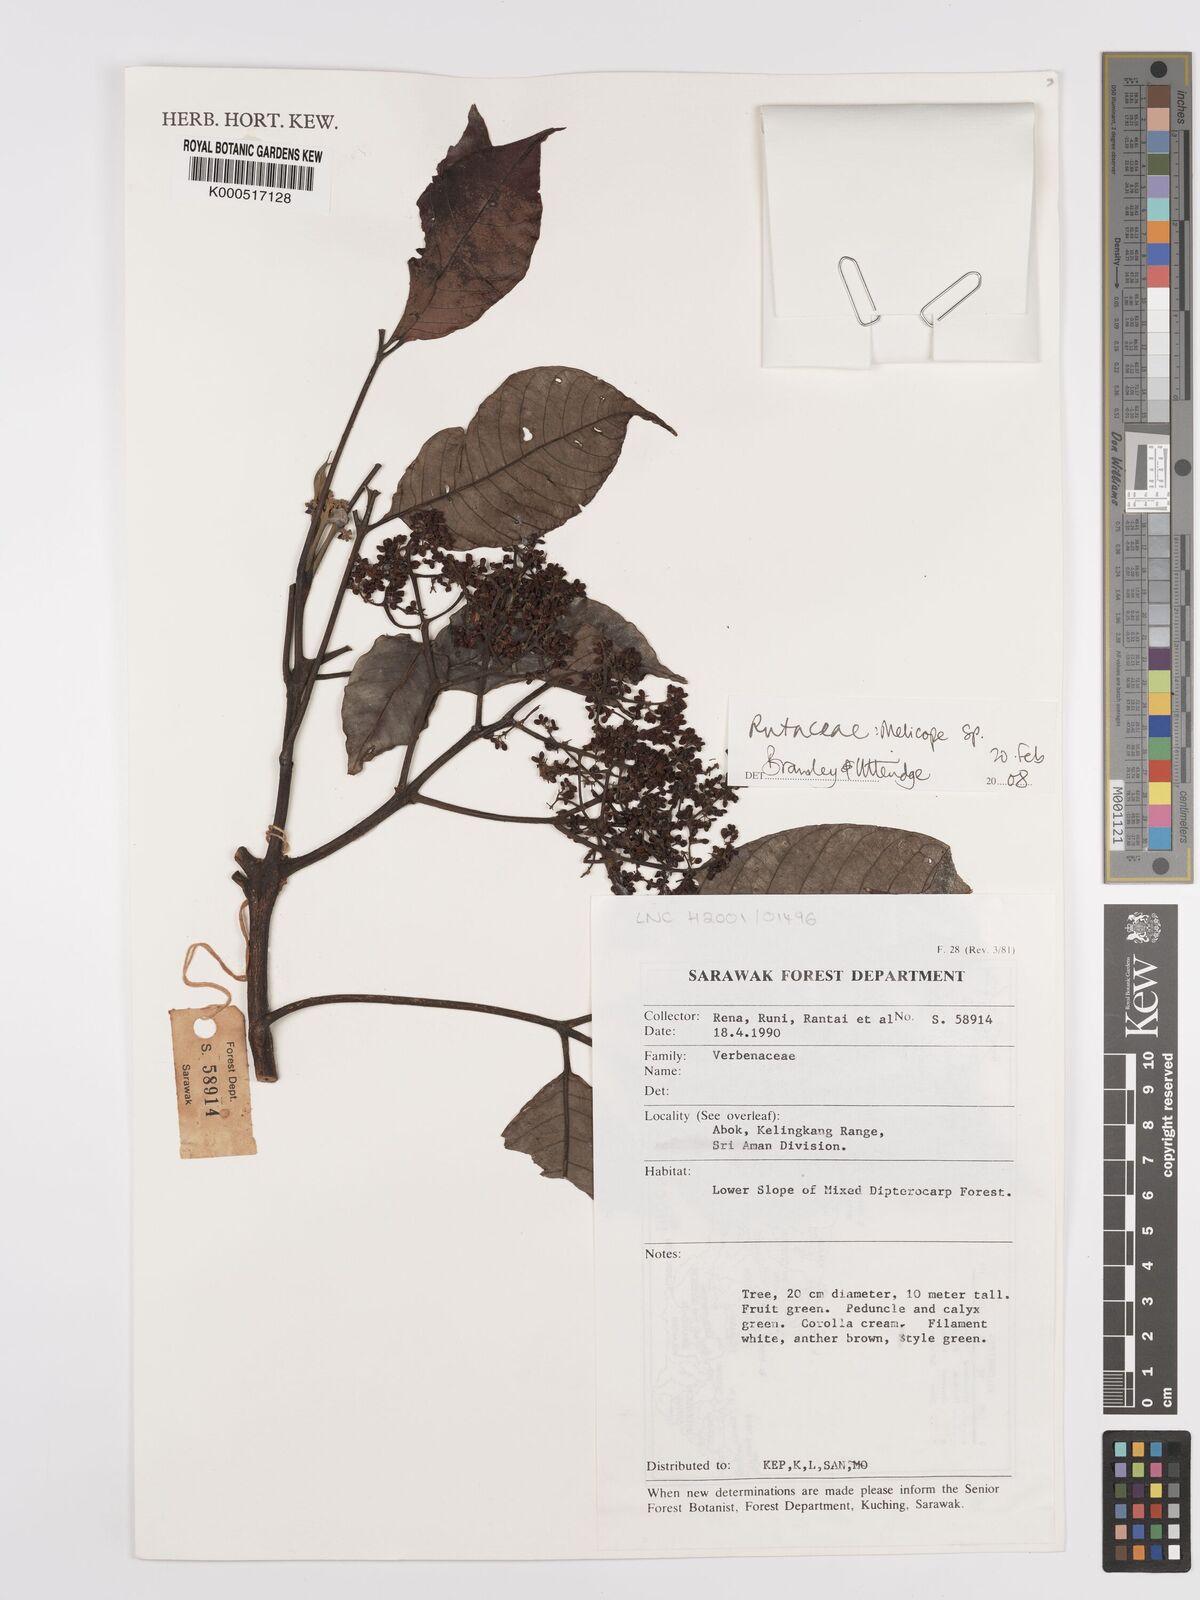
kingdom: Plantae
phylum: Tracheophyta
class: Magnoliopsida
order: Sapindales
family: Rutaceae
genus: Melicope
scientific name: Melicope
